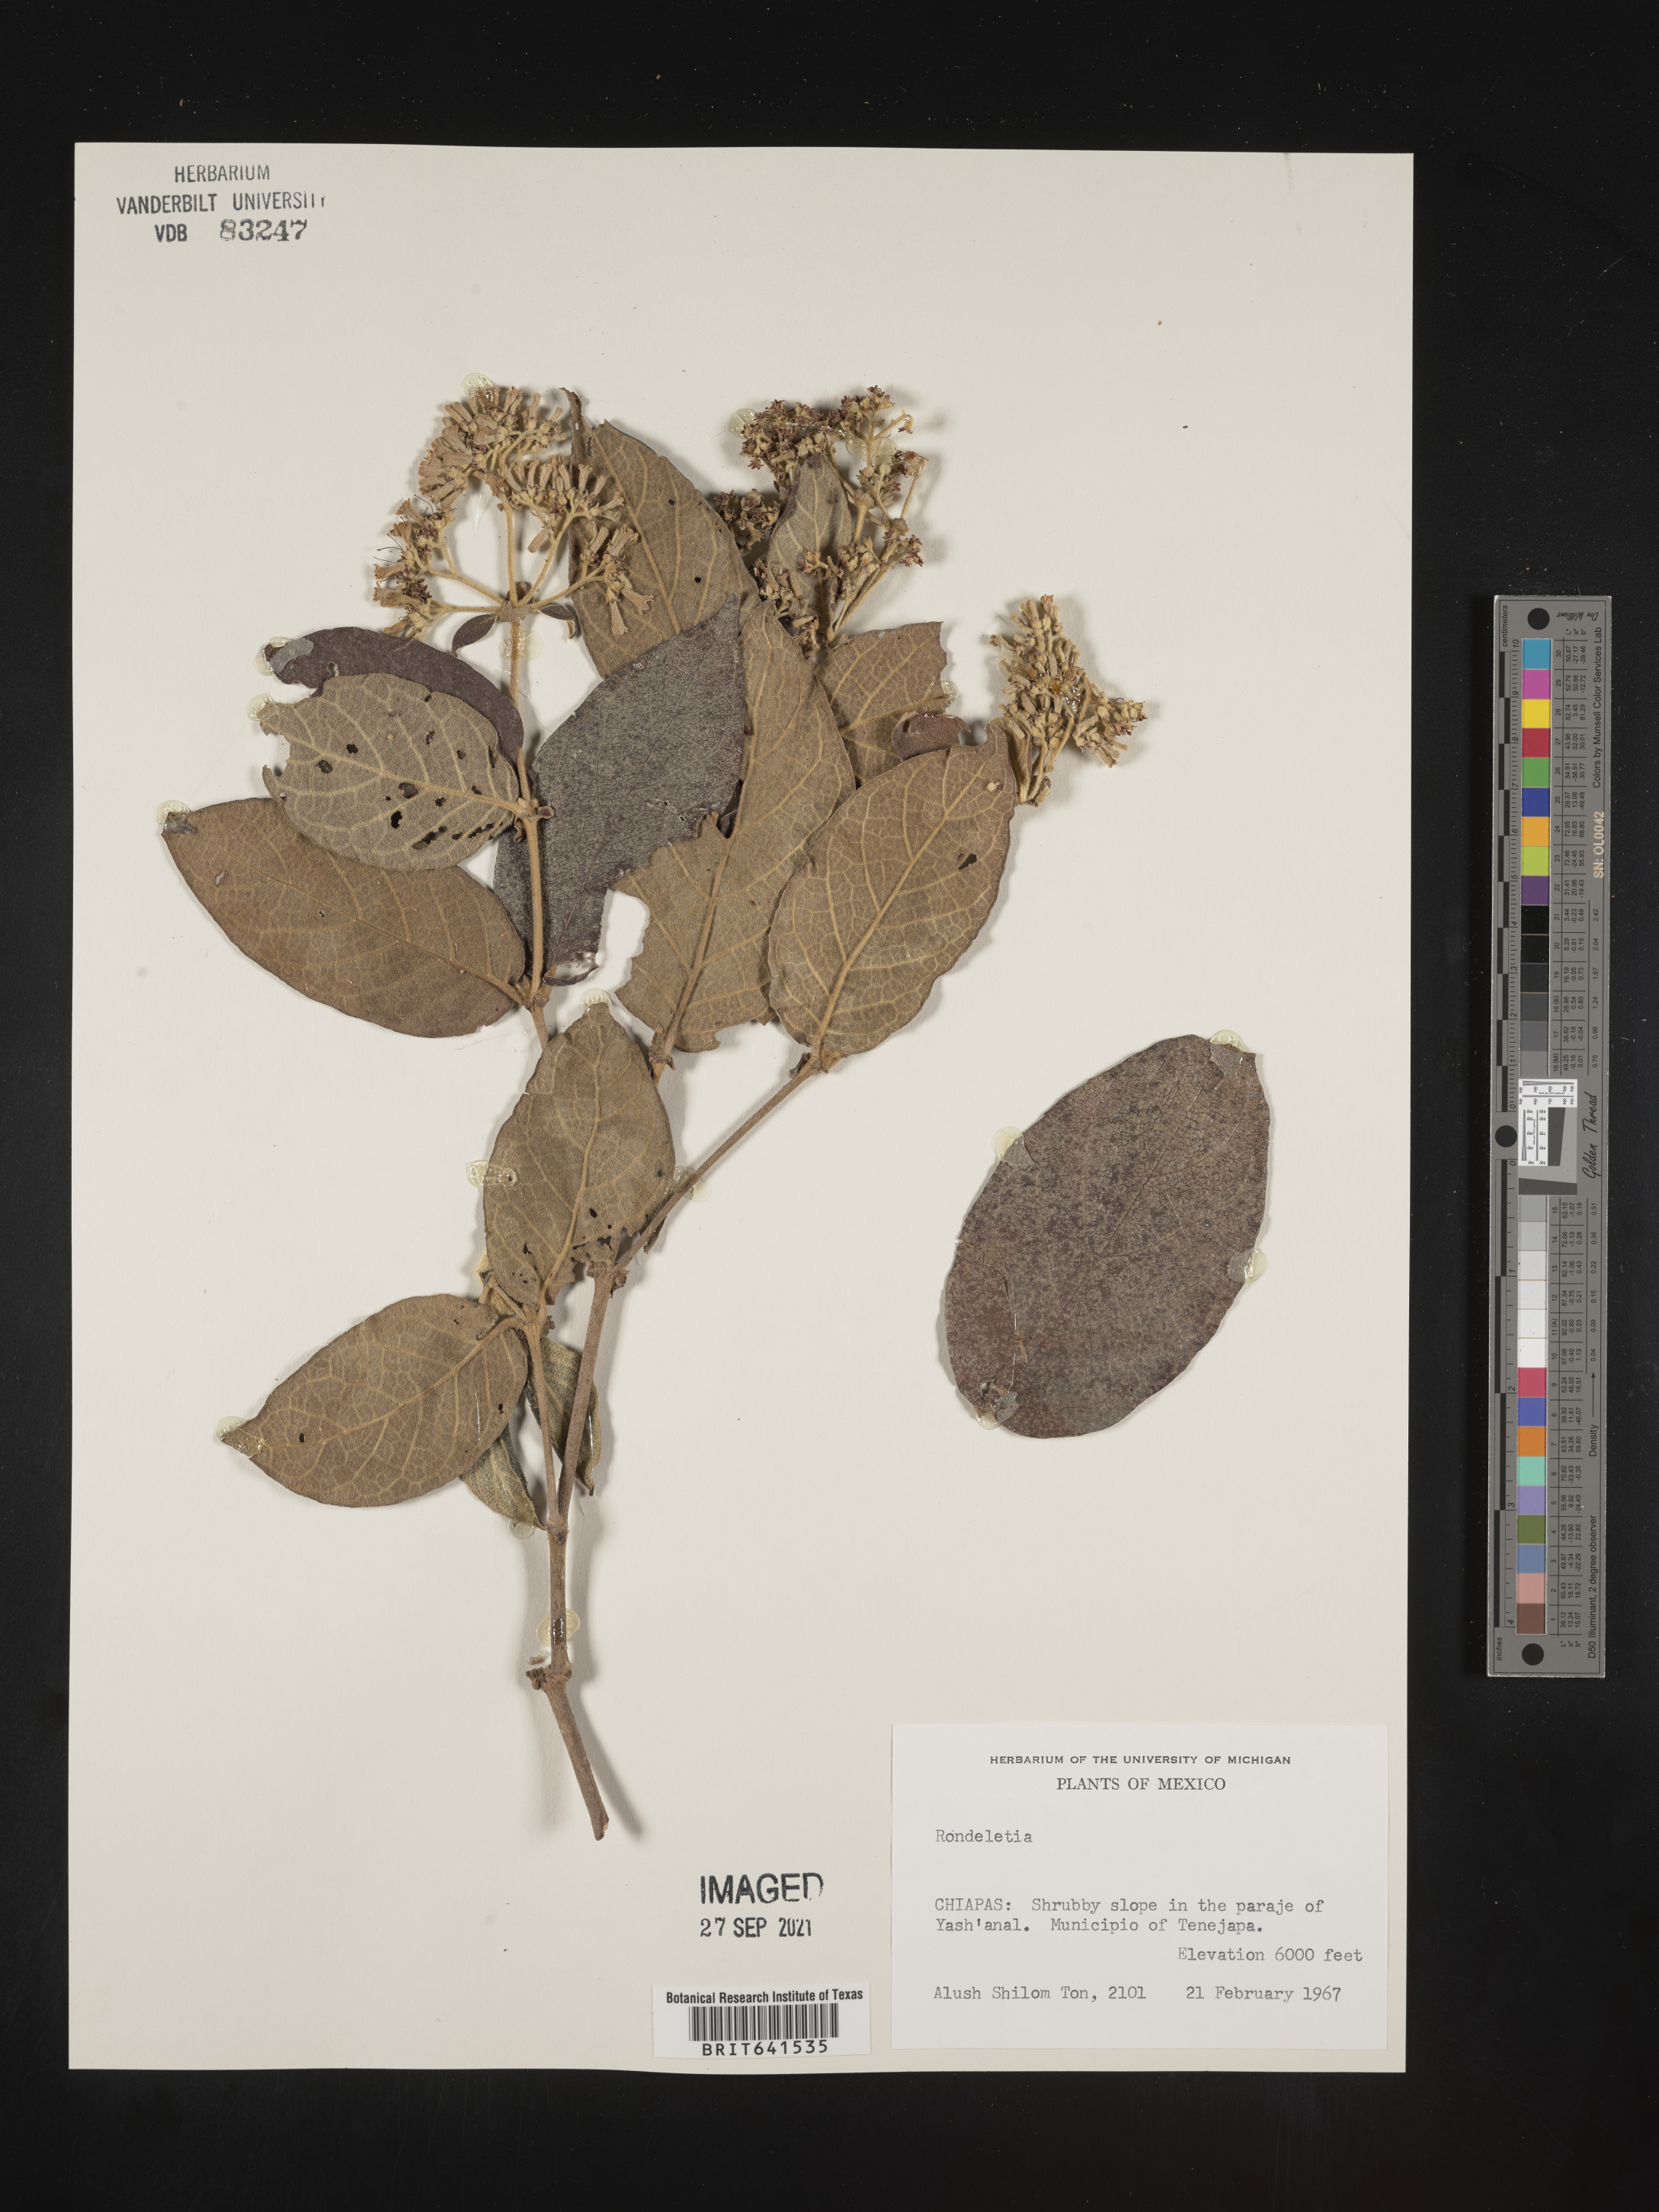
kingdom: Plantae
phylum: Tracheophyta
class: Magnoliopsida
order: Gentianales
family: Rubiaceae
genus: Rondeletia
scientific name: Rondeletia
